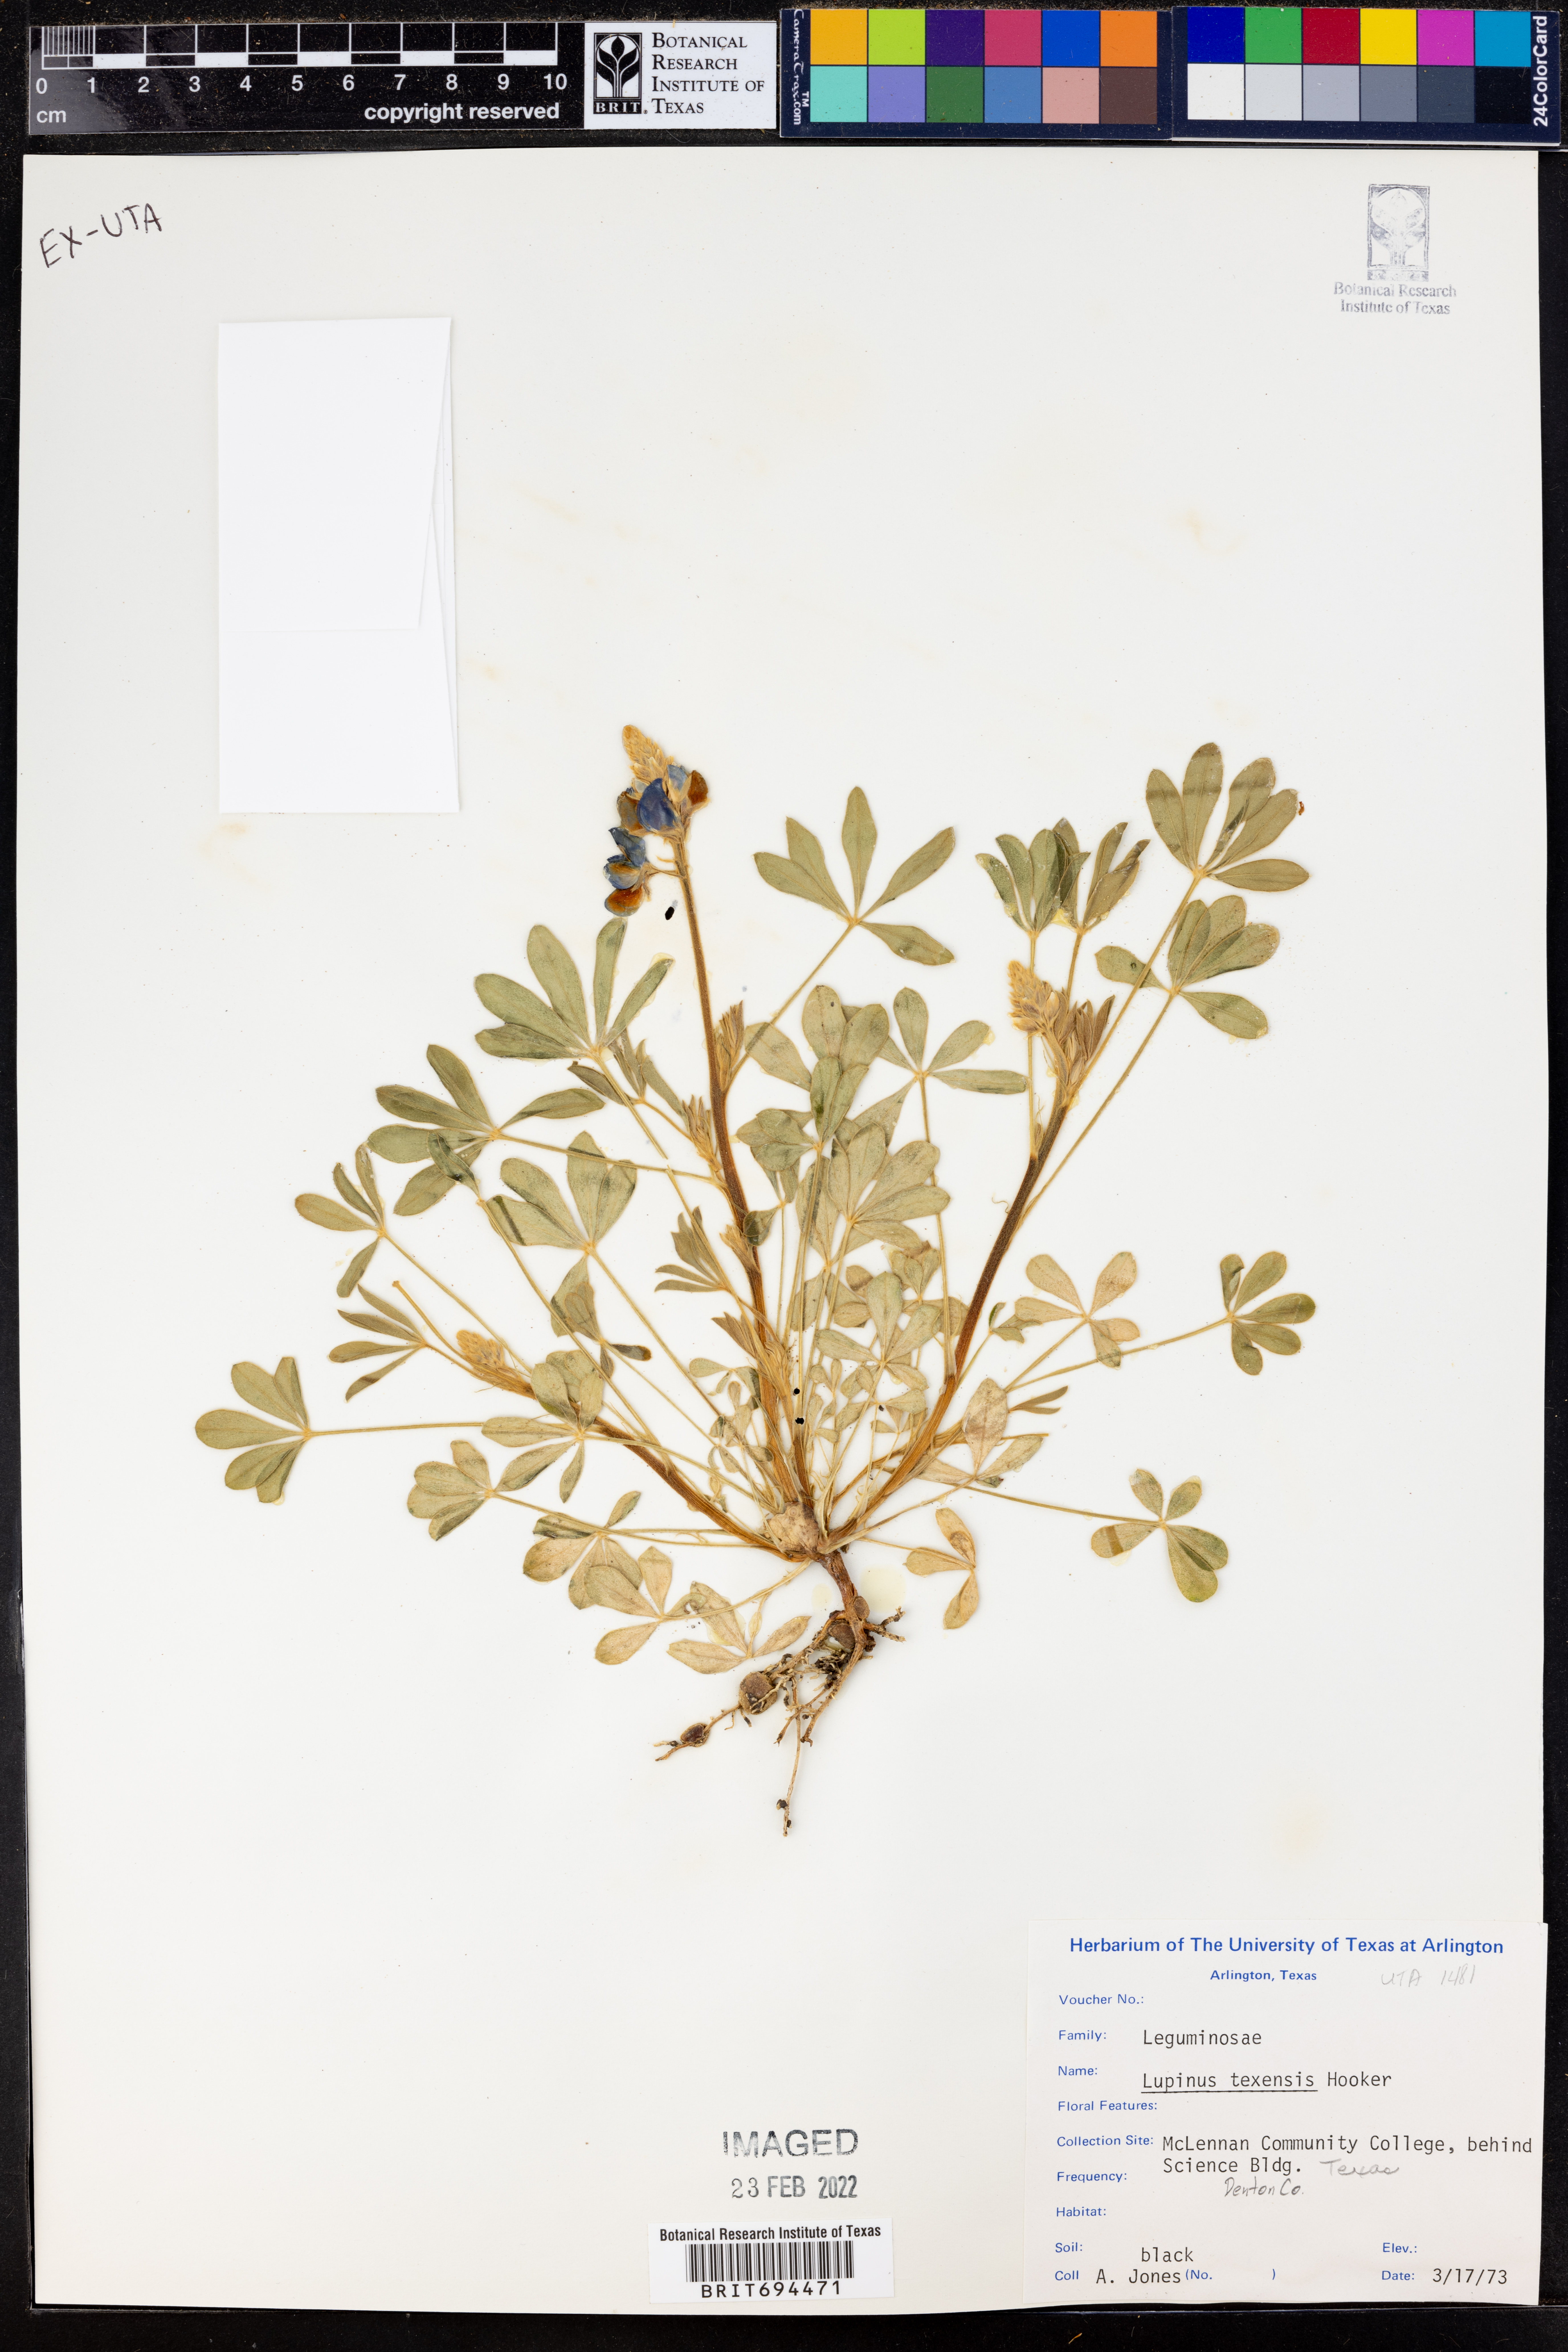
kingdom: Plantae
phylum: Tracheophyta
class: Magnoliopsida
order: Fabales
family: Fabaceae
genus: Lupinus
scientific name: Lupinus texensis
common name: Texas bluebonnet
